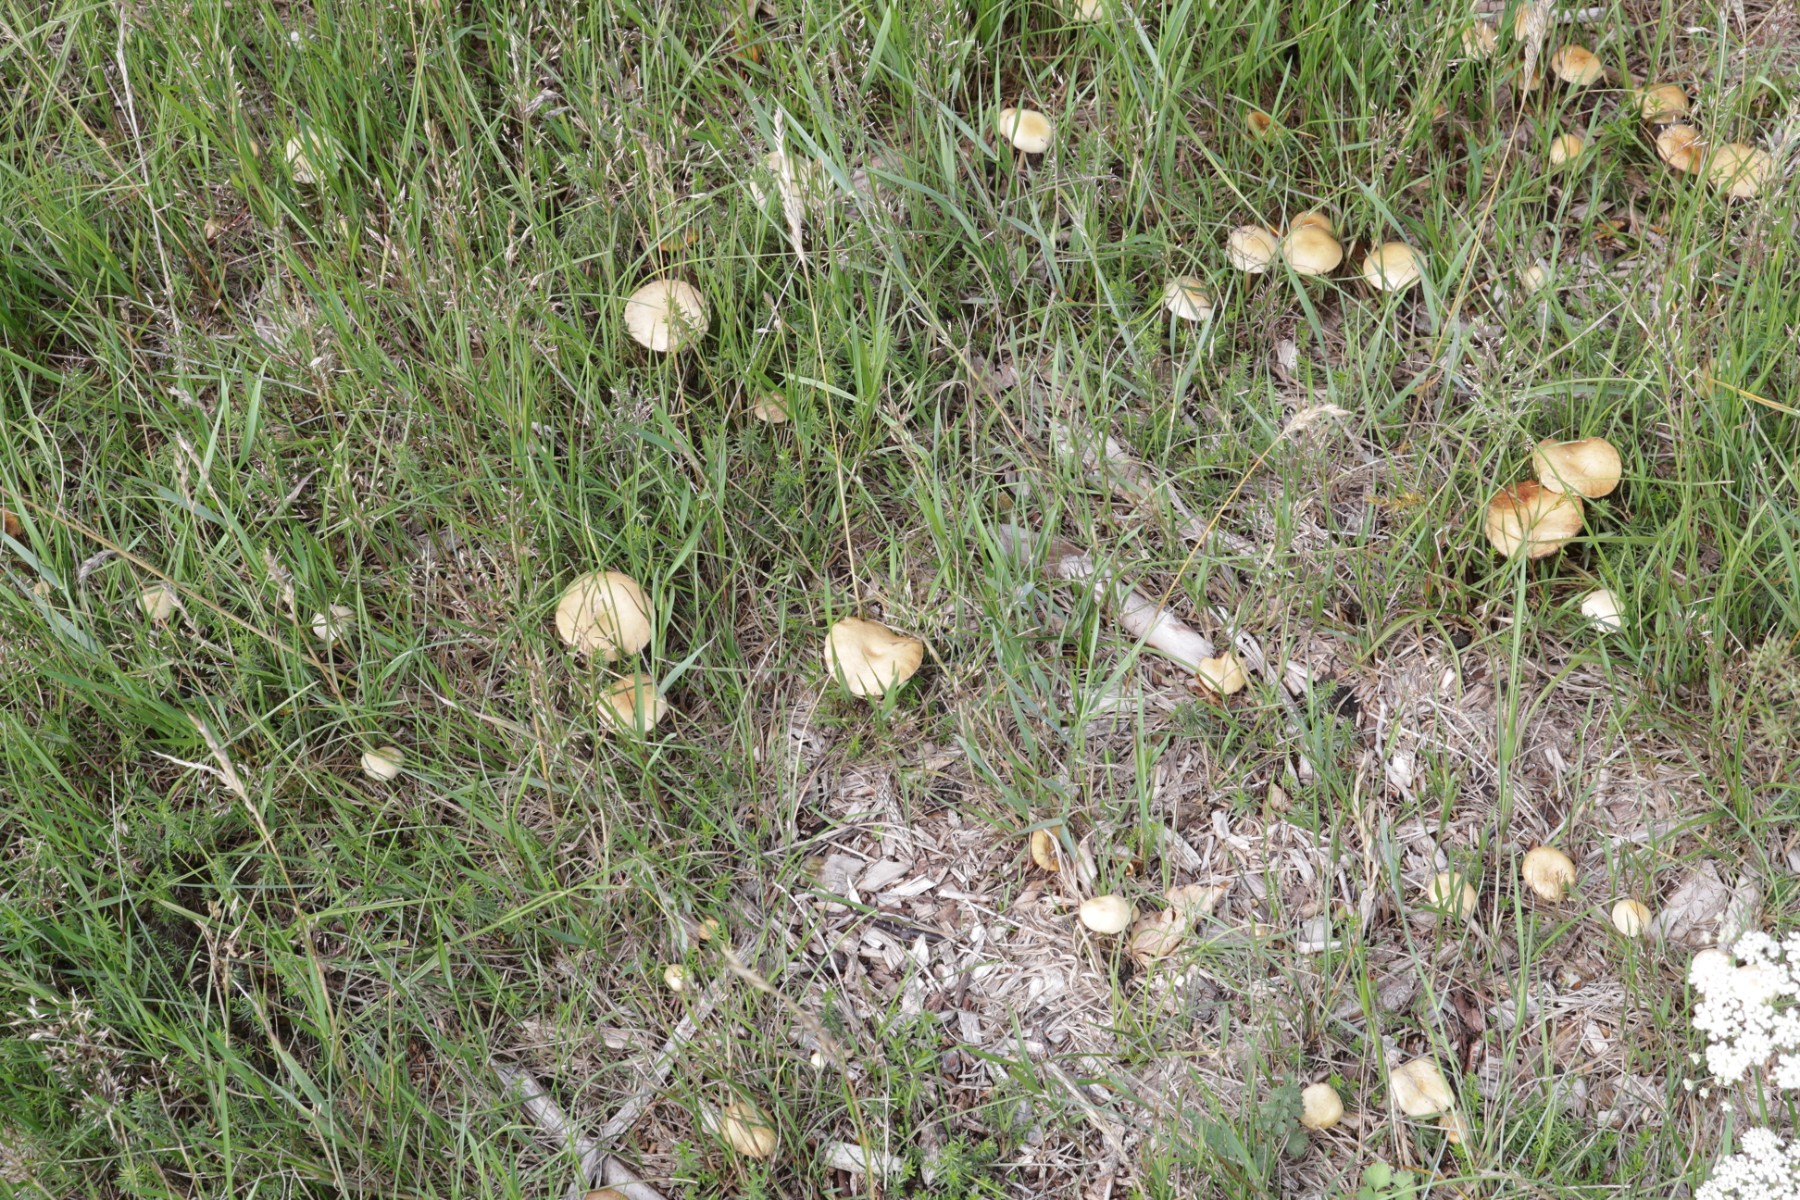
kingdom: Fungi
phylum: Basidiomycota
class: Agaricomycetes
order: Agaricales
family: Strophariaceae
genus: Agrocybe
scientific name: Agrocybe pediades
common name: almindelig agerhat
